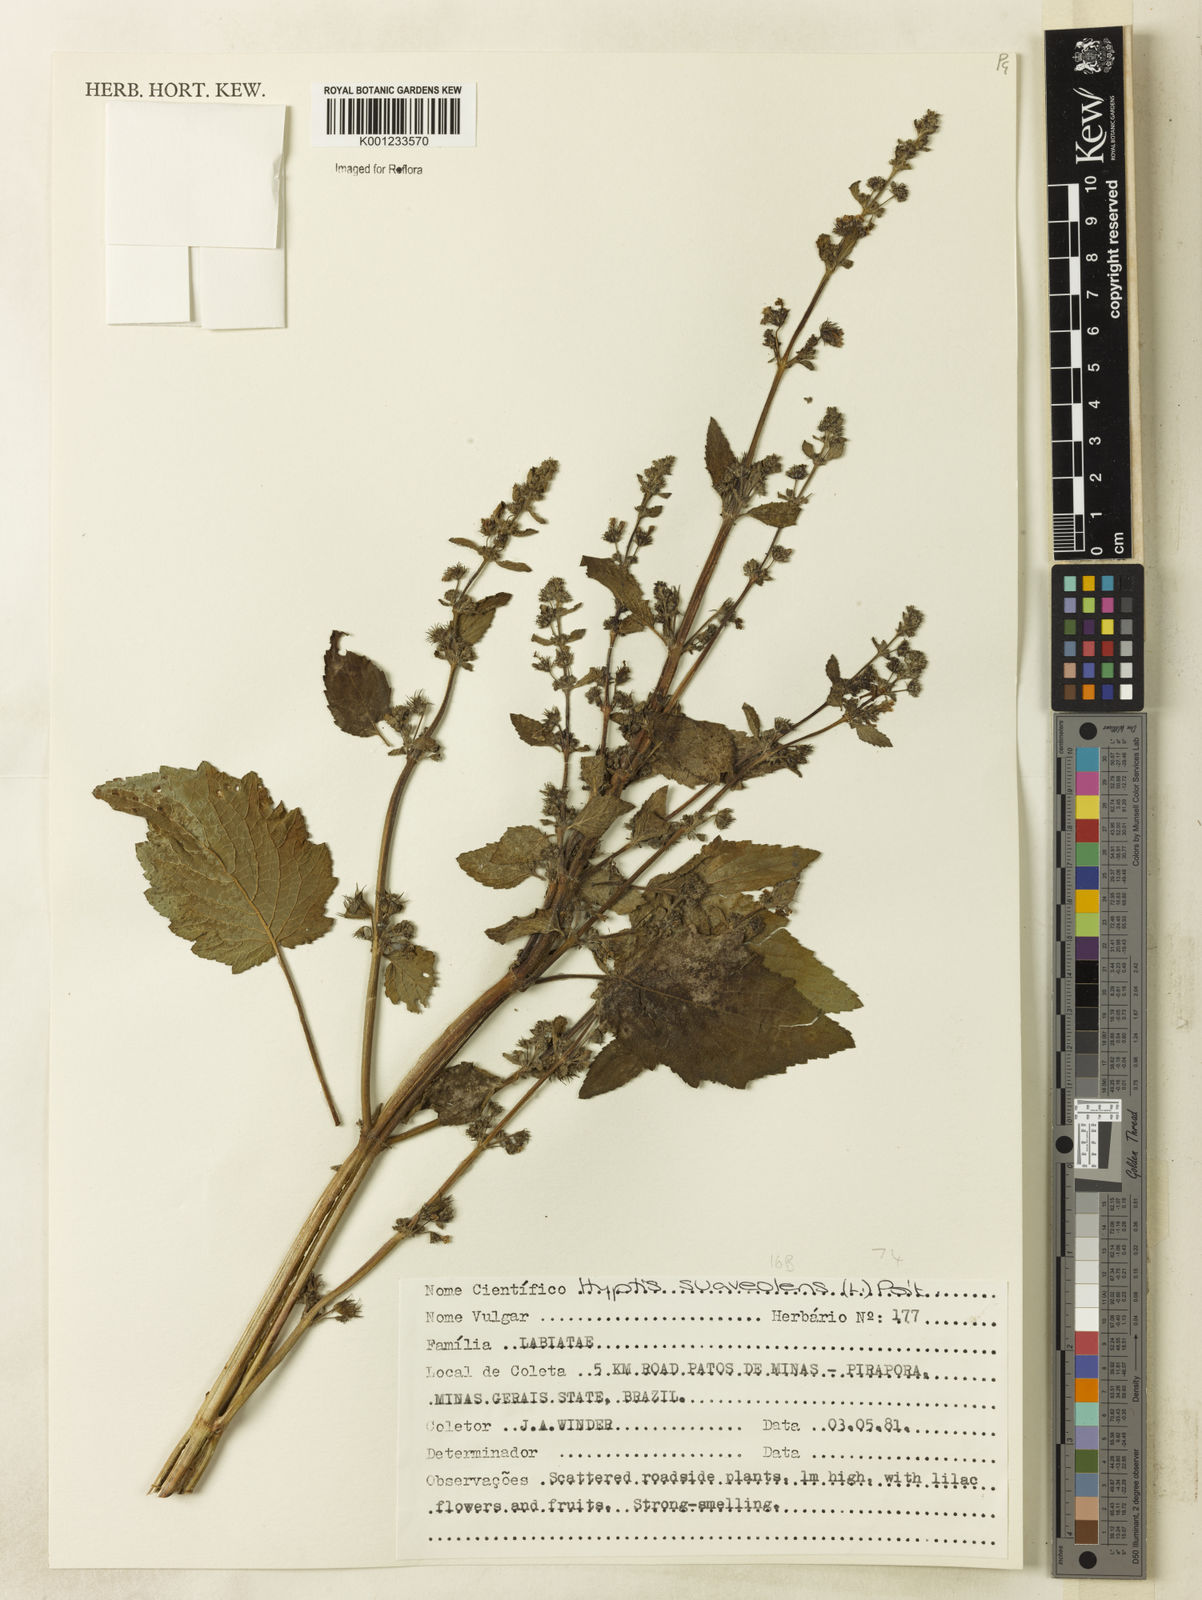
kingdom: Plantae
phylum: Tracheophyta
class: Magnoliopsida
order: Lamiales
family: Lamiaceae
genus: Mesosphaerum
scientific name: Mesosphaerum suaveolens
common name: Pignut
